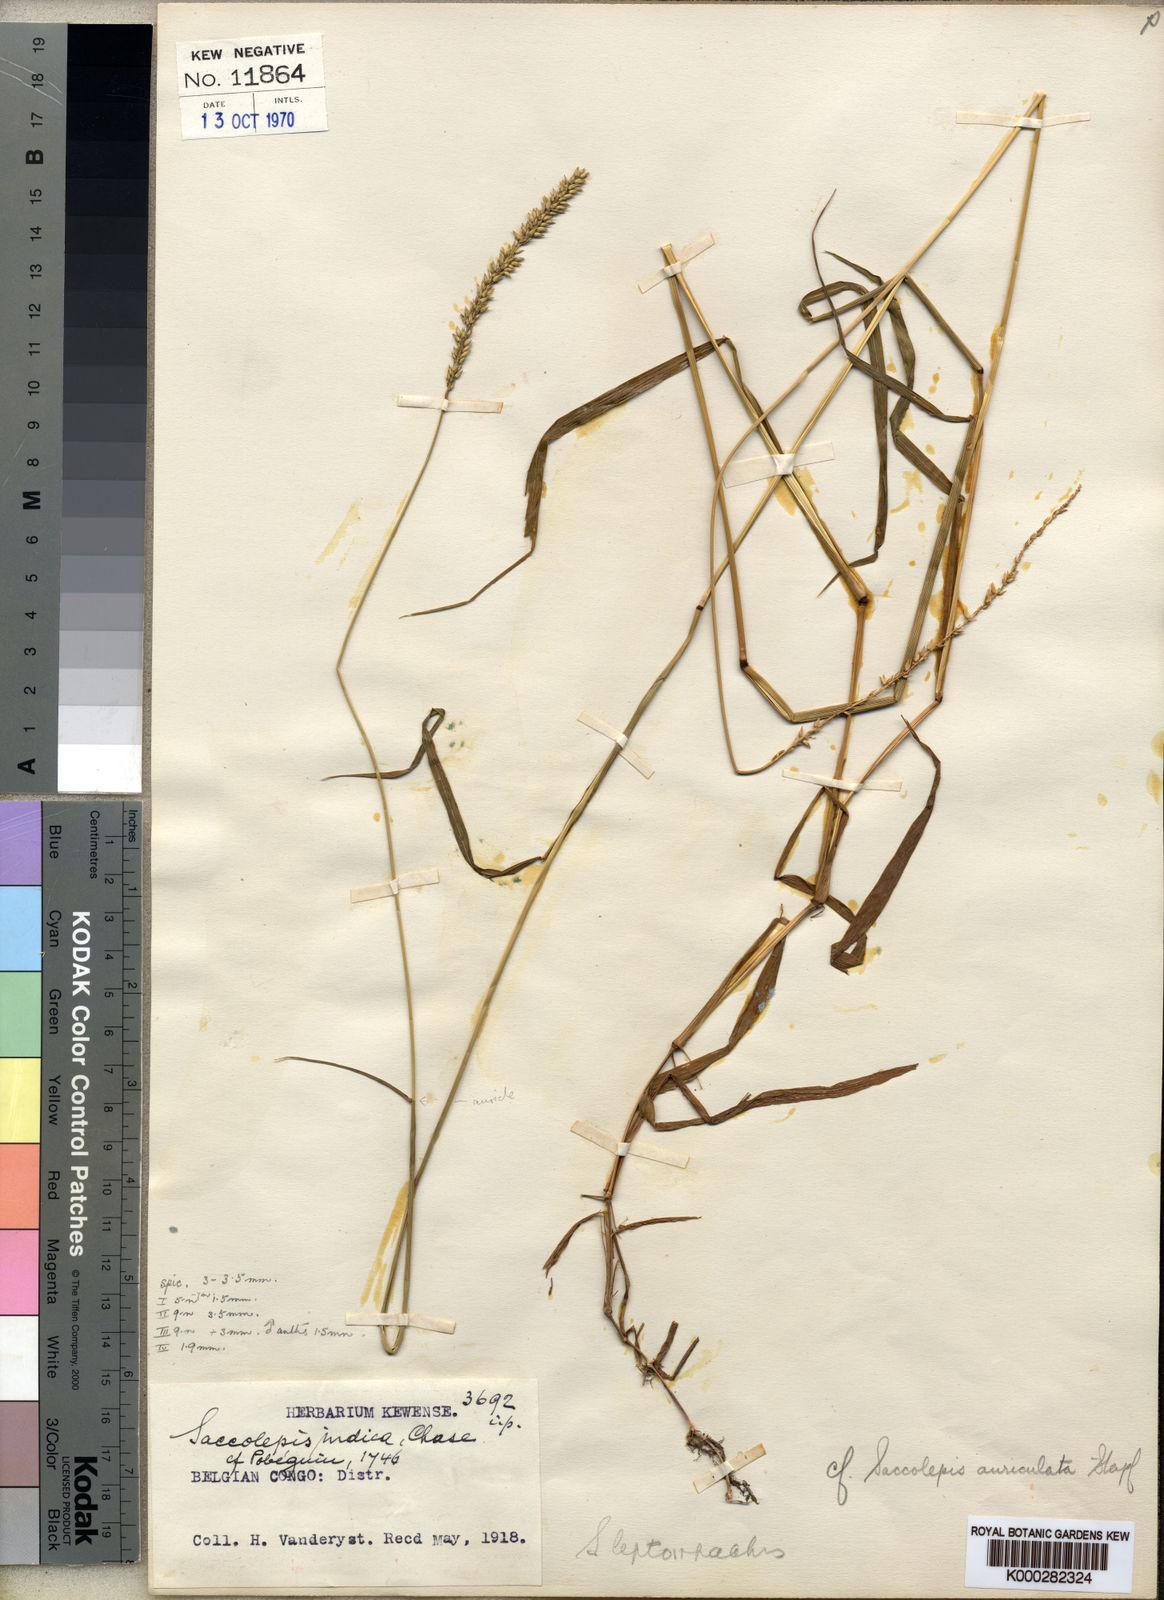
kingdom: Plantae
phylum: Tracheophyta
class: Liliopsida
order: Poales
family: Poaceae
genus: Sacciolepis
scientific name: Sacciolepis leptorrhachis
